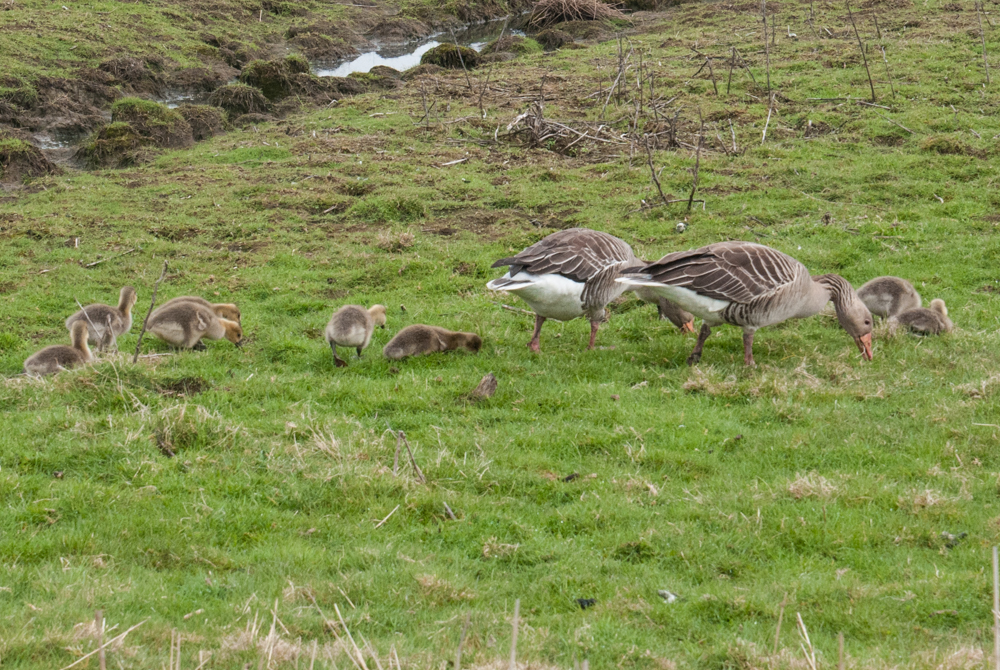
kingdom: Animalia
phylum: Chordata
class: Aves
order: Anseriformes
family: Anatidae
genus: Anser
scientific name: Anser anser
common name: Greylag goose
